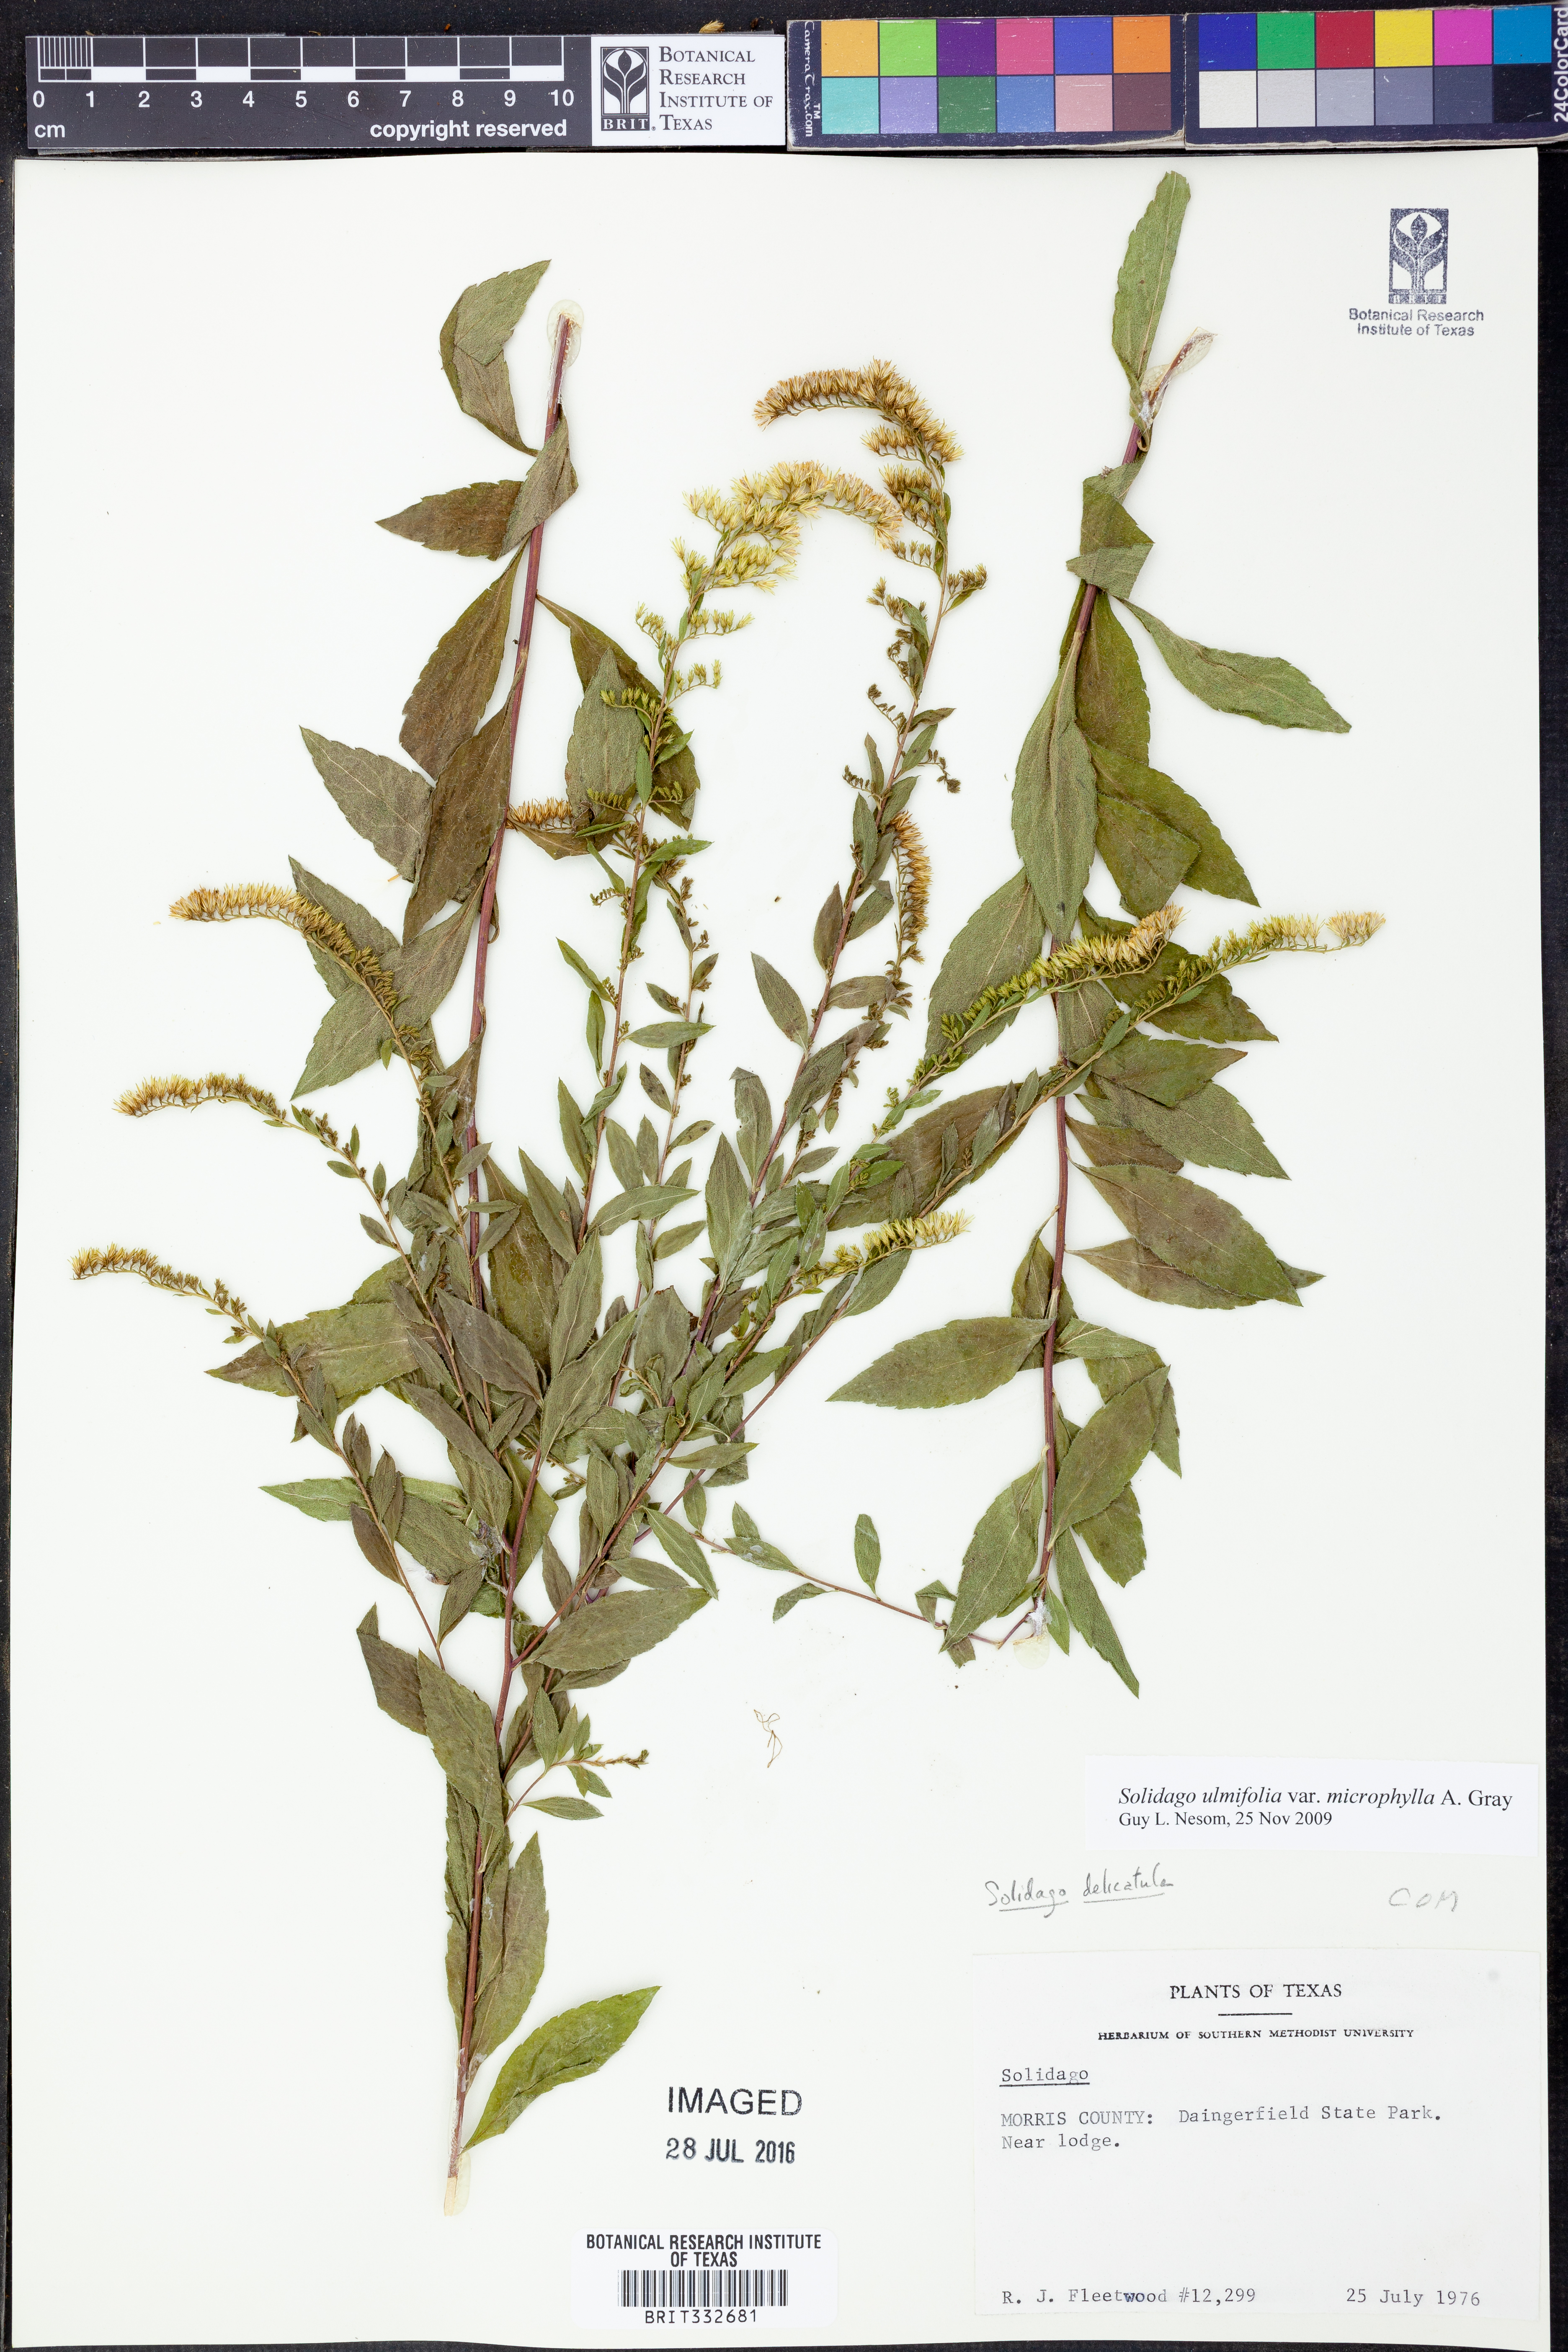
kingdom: Plantae
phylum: Tracheophyta
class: Magnoliopsida
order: Asterales
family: Asteraceae
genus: Solidago
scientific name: Solidago delicatula
